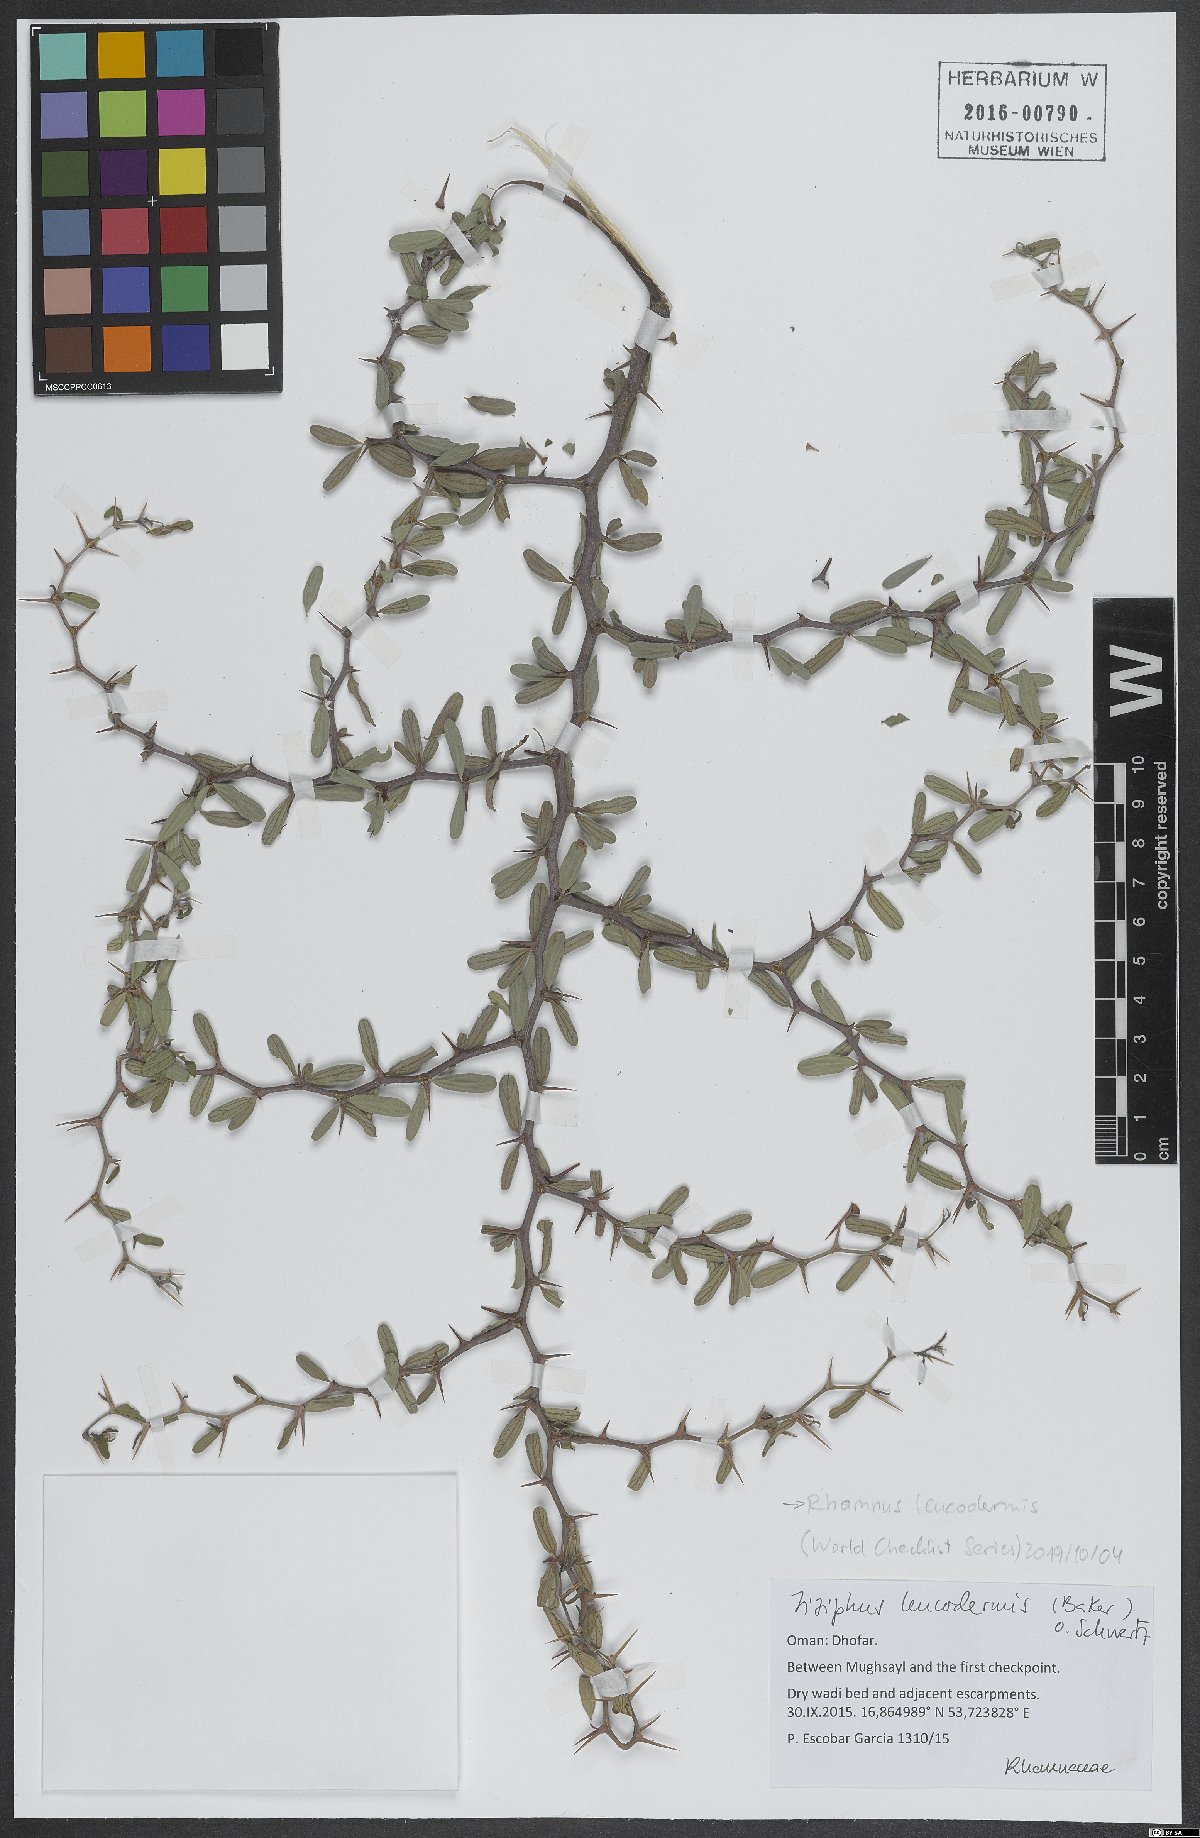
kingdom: Plantae
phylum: Tracheophyta
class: Magnoliopsida
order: Rosales
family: Rhamnaceae
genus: Ziziphus
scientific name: Ziziphus leucodermis
